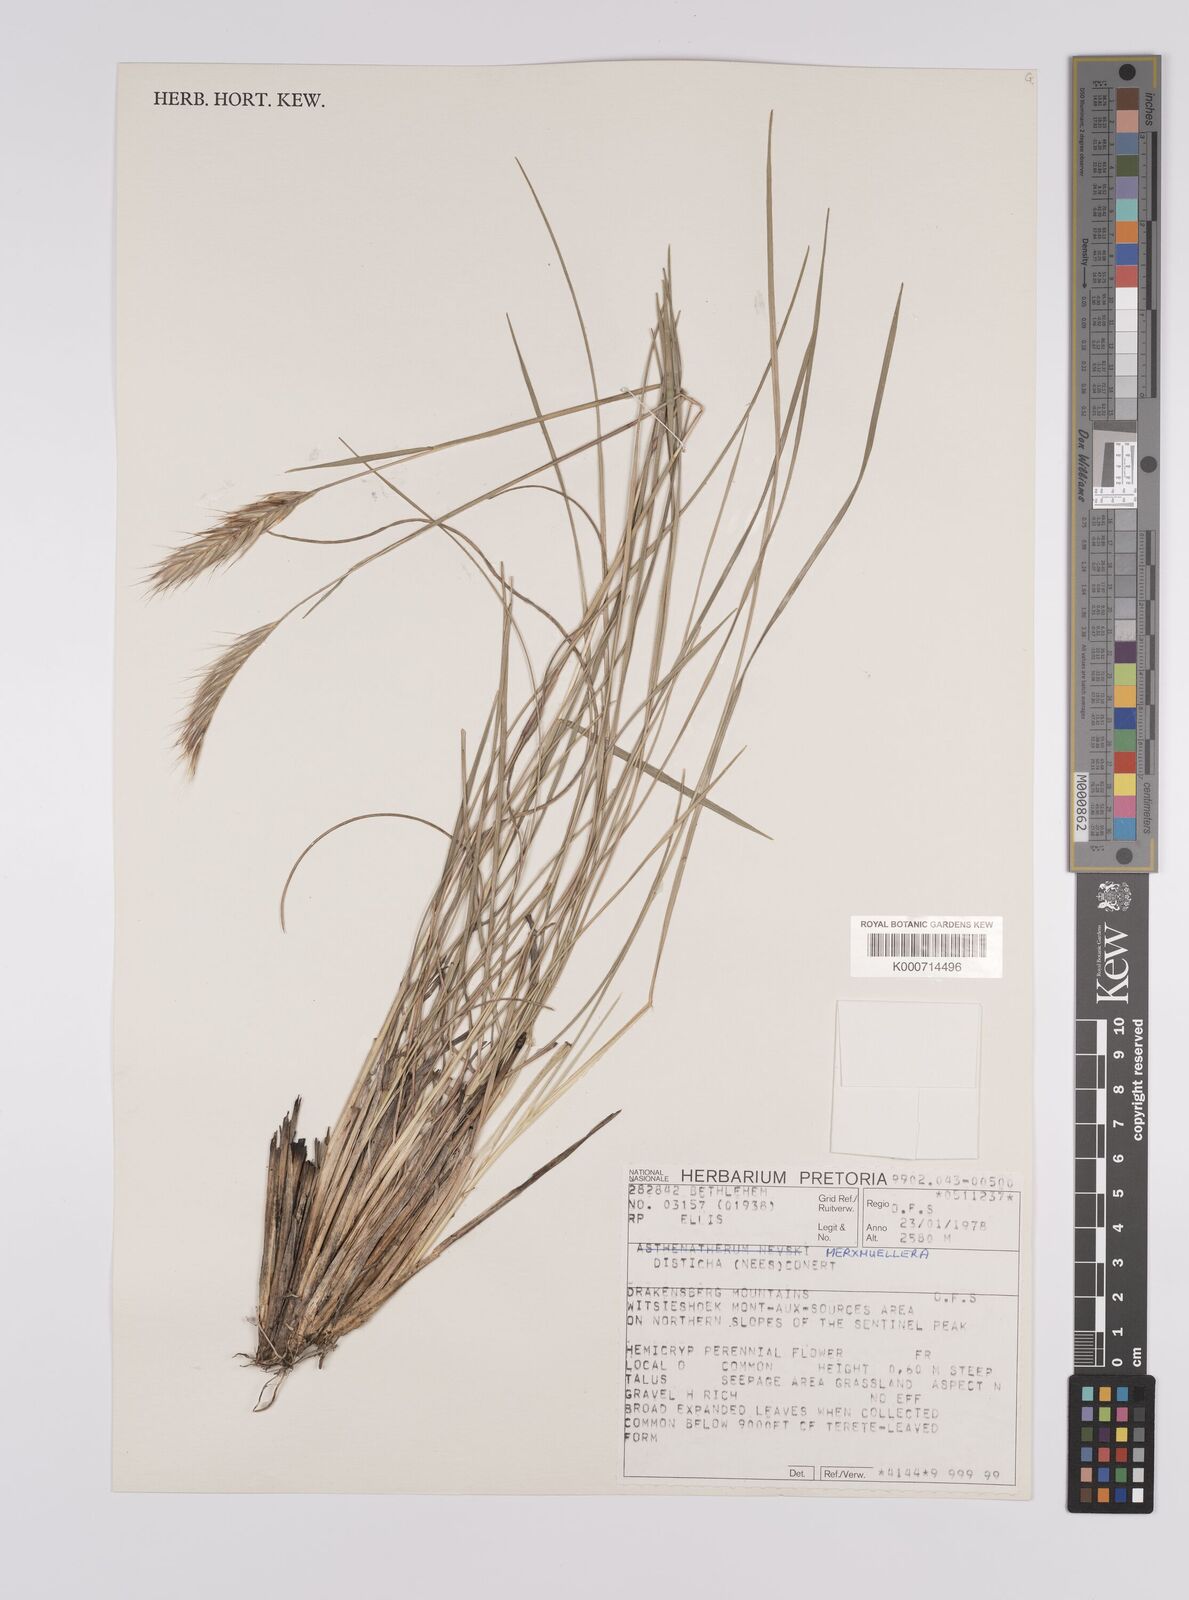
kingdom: Plantae
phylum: Tracheophyta
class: Liliopsida
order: Poales
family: Poaceae
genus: Tenaxia
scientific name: Tenaxia disticha
